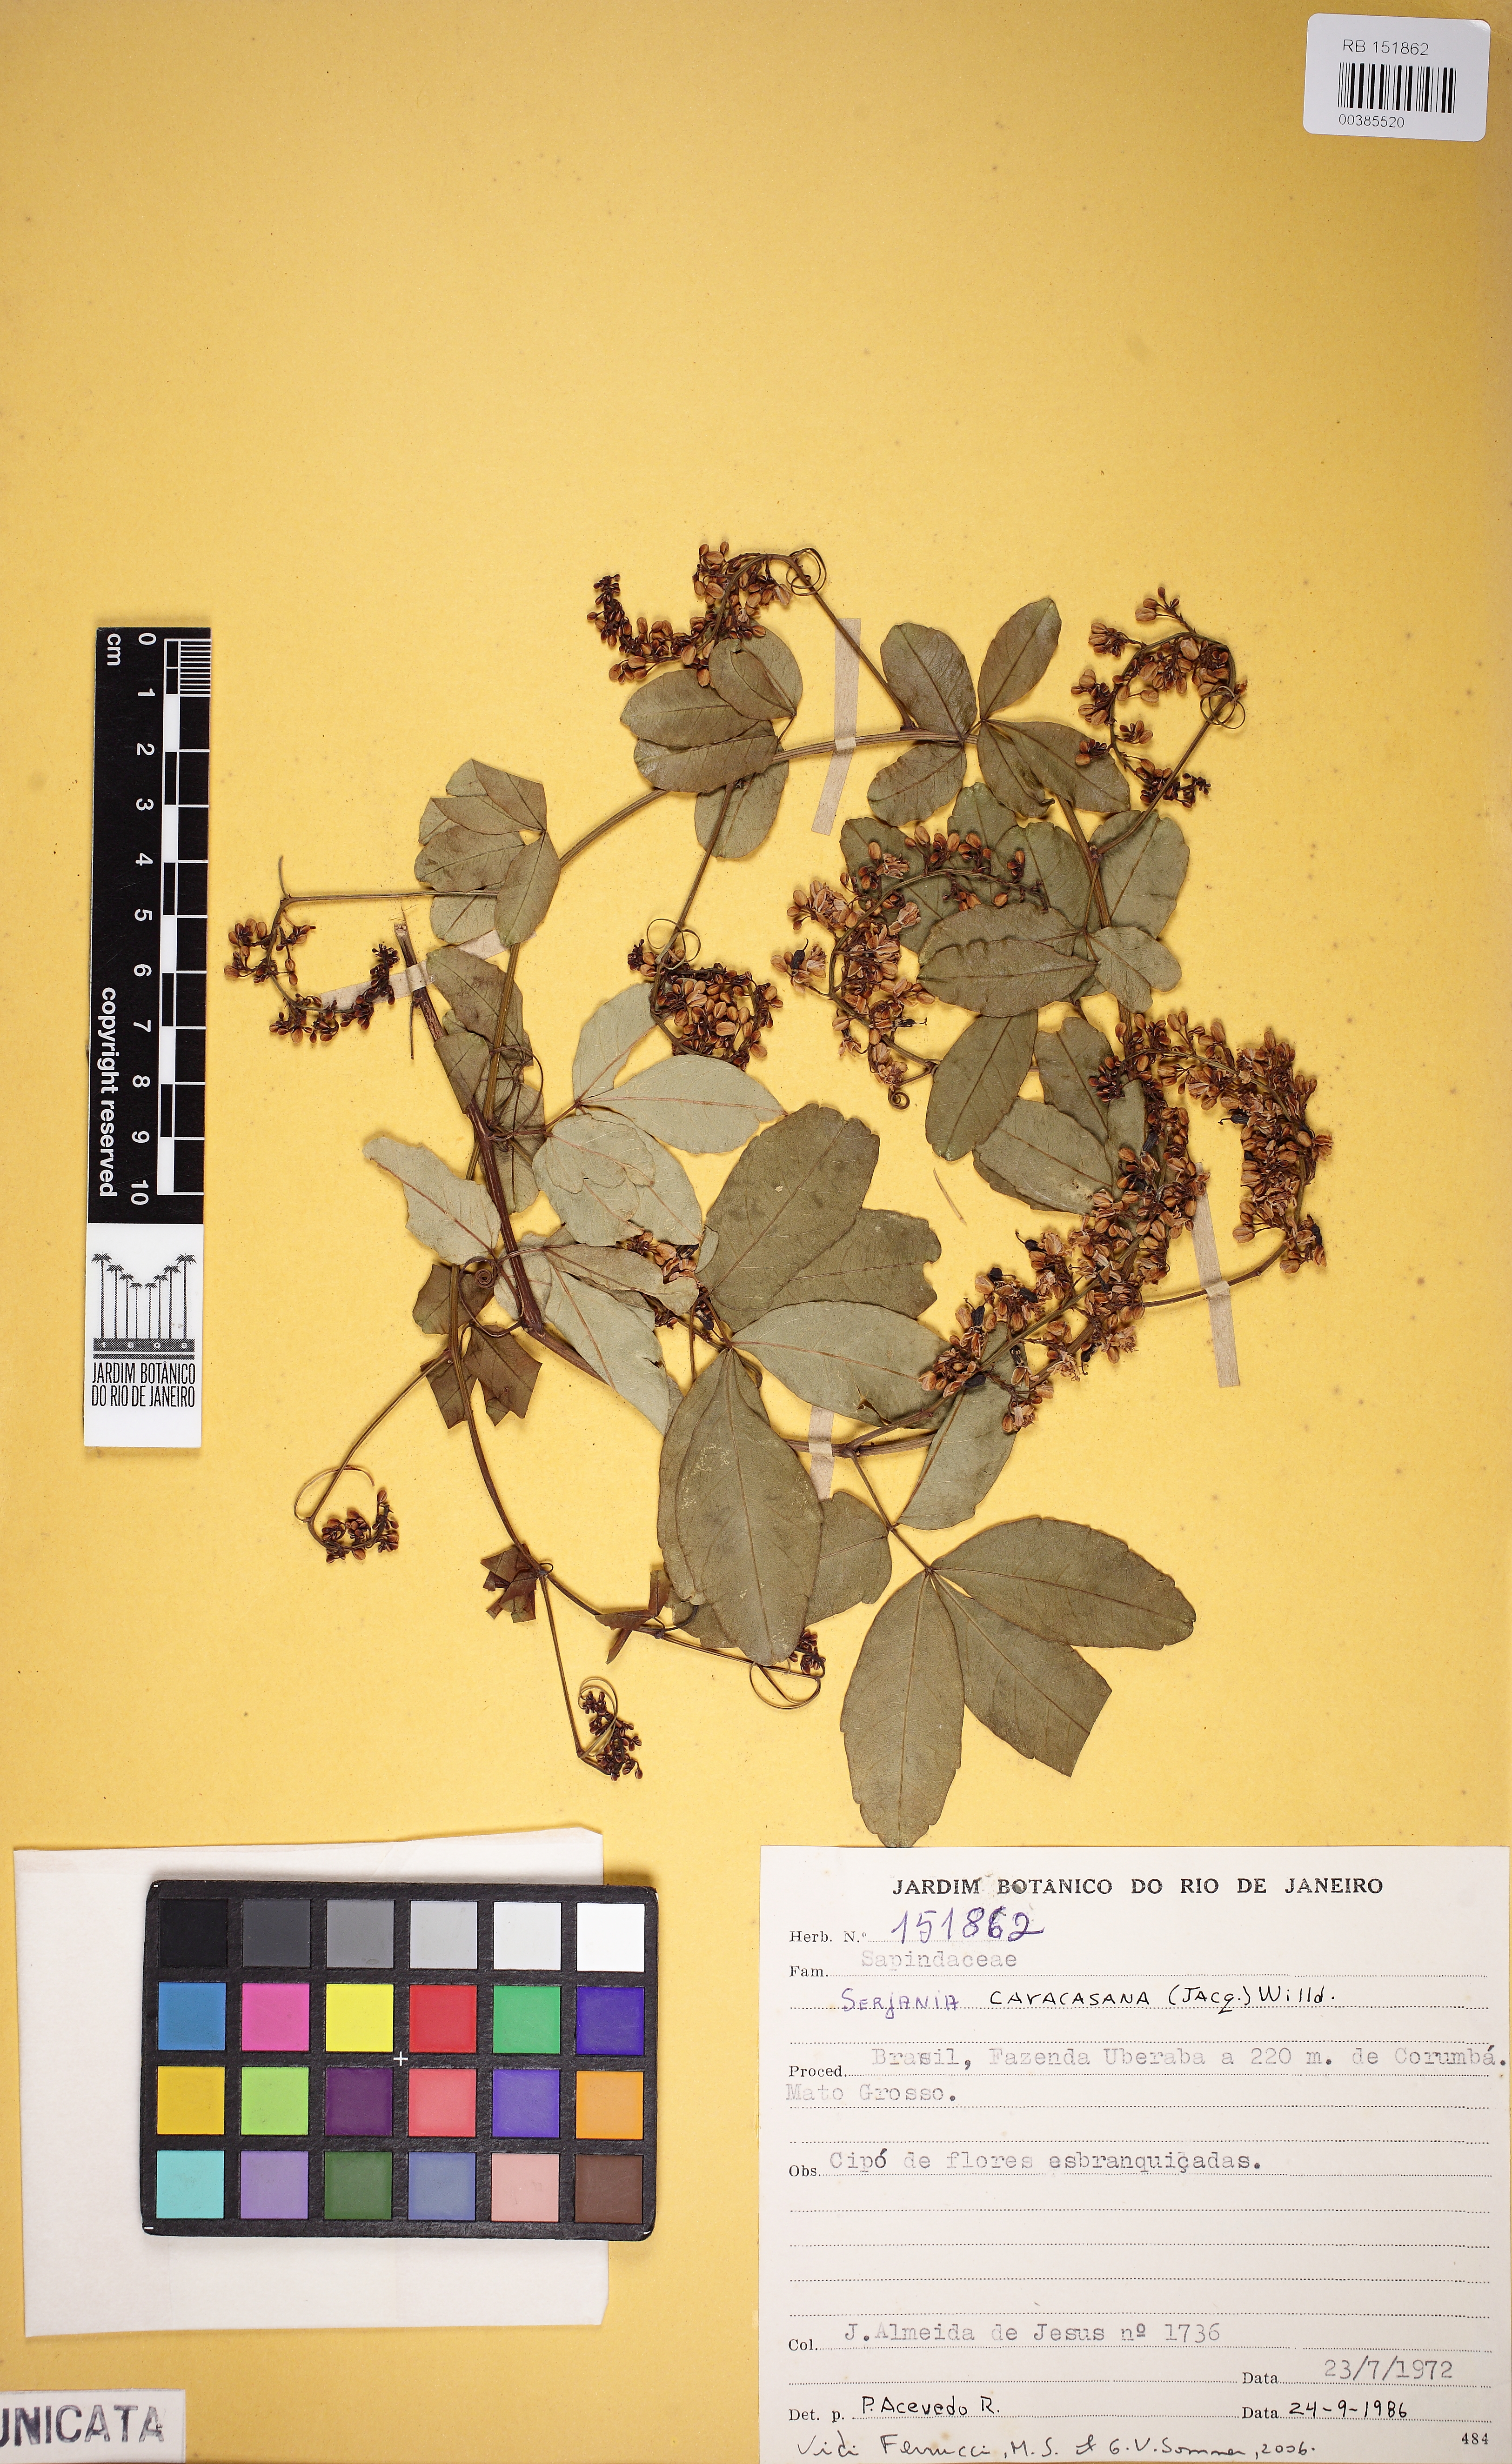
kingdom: Plantae
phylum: Tracheophyta
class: Magnoliopsida
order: Sapindales
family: Sapindaceae
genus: Serjania
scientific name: Serjania caracasana
